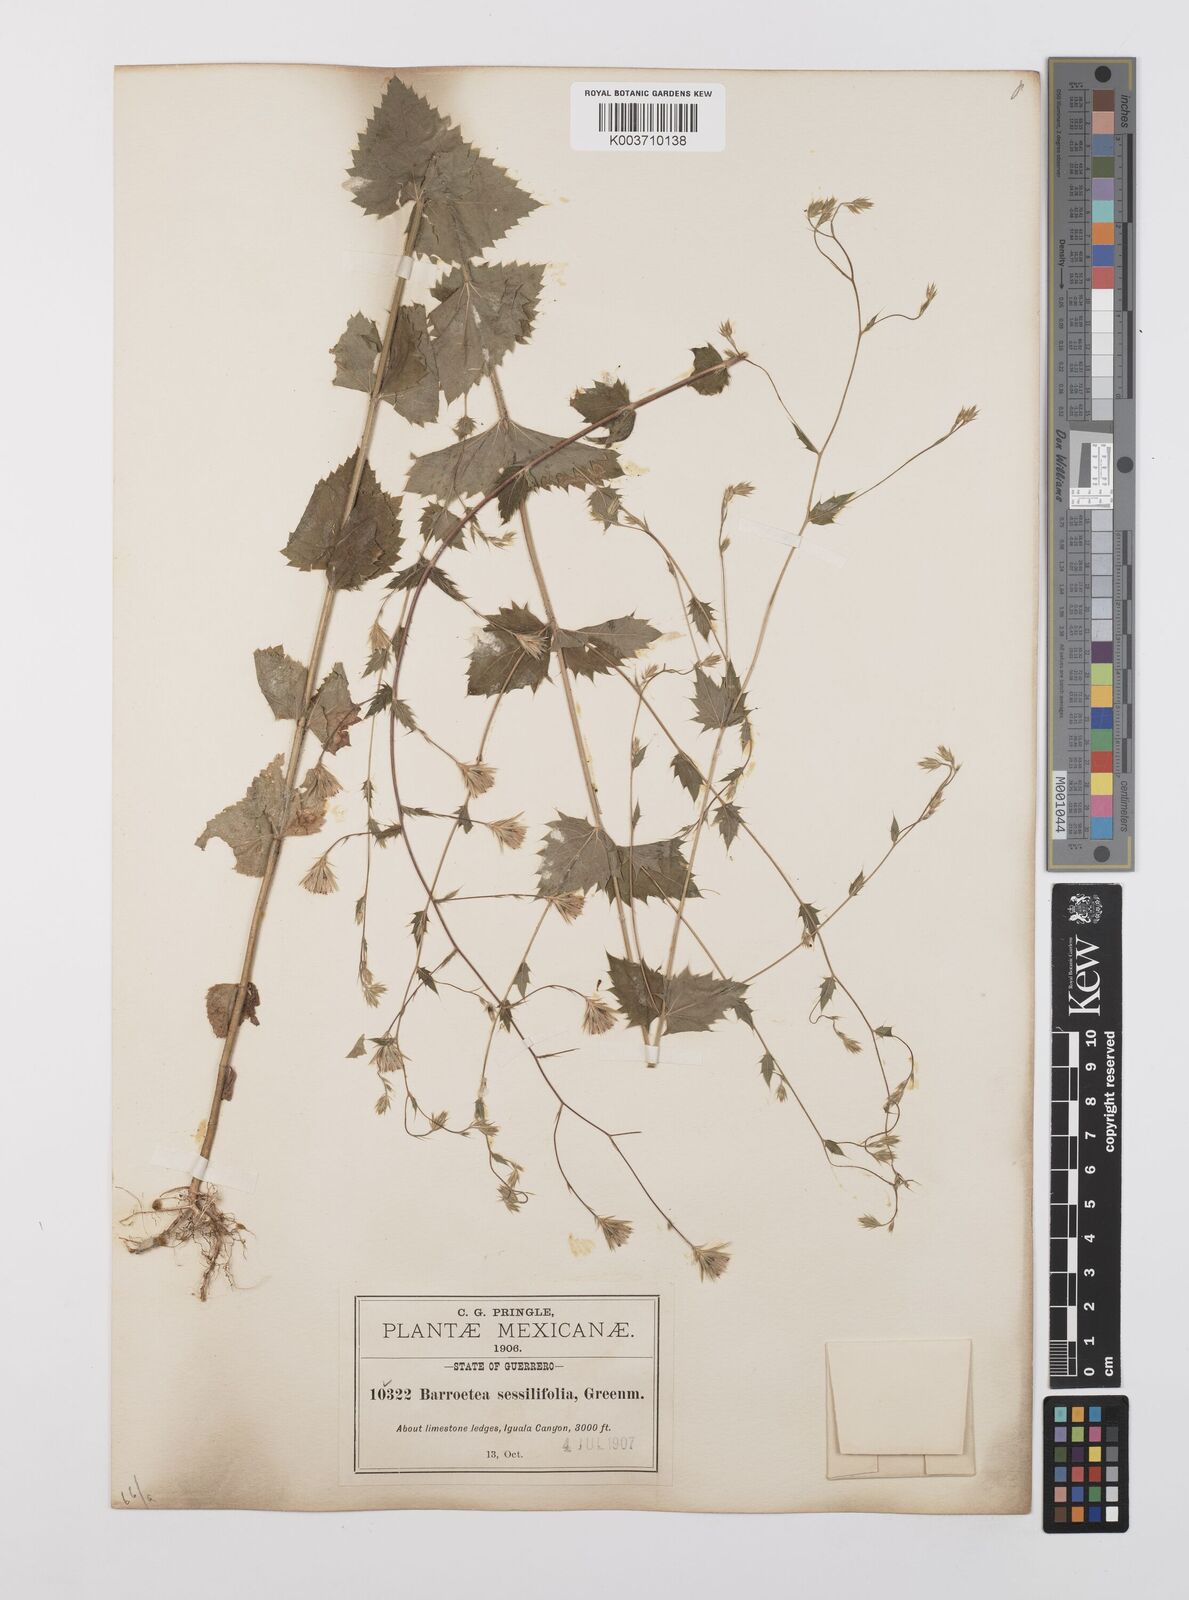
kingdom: Plantae
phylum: Tracheophyta
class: Magnoliopsida
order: Asterales
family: Asteraceae
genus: Brickellia
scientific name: Brickellia pavonii
